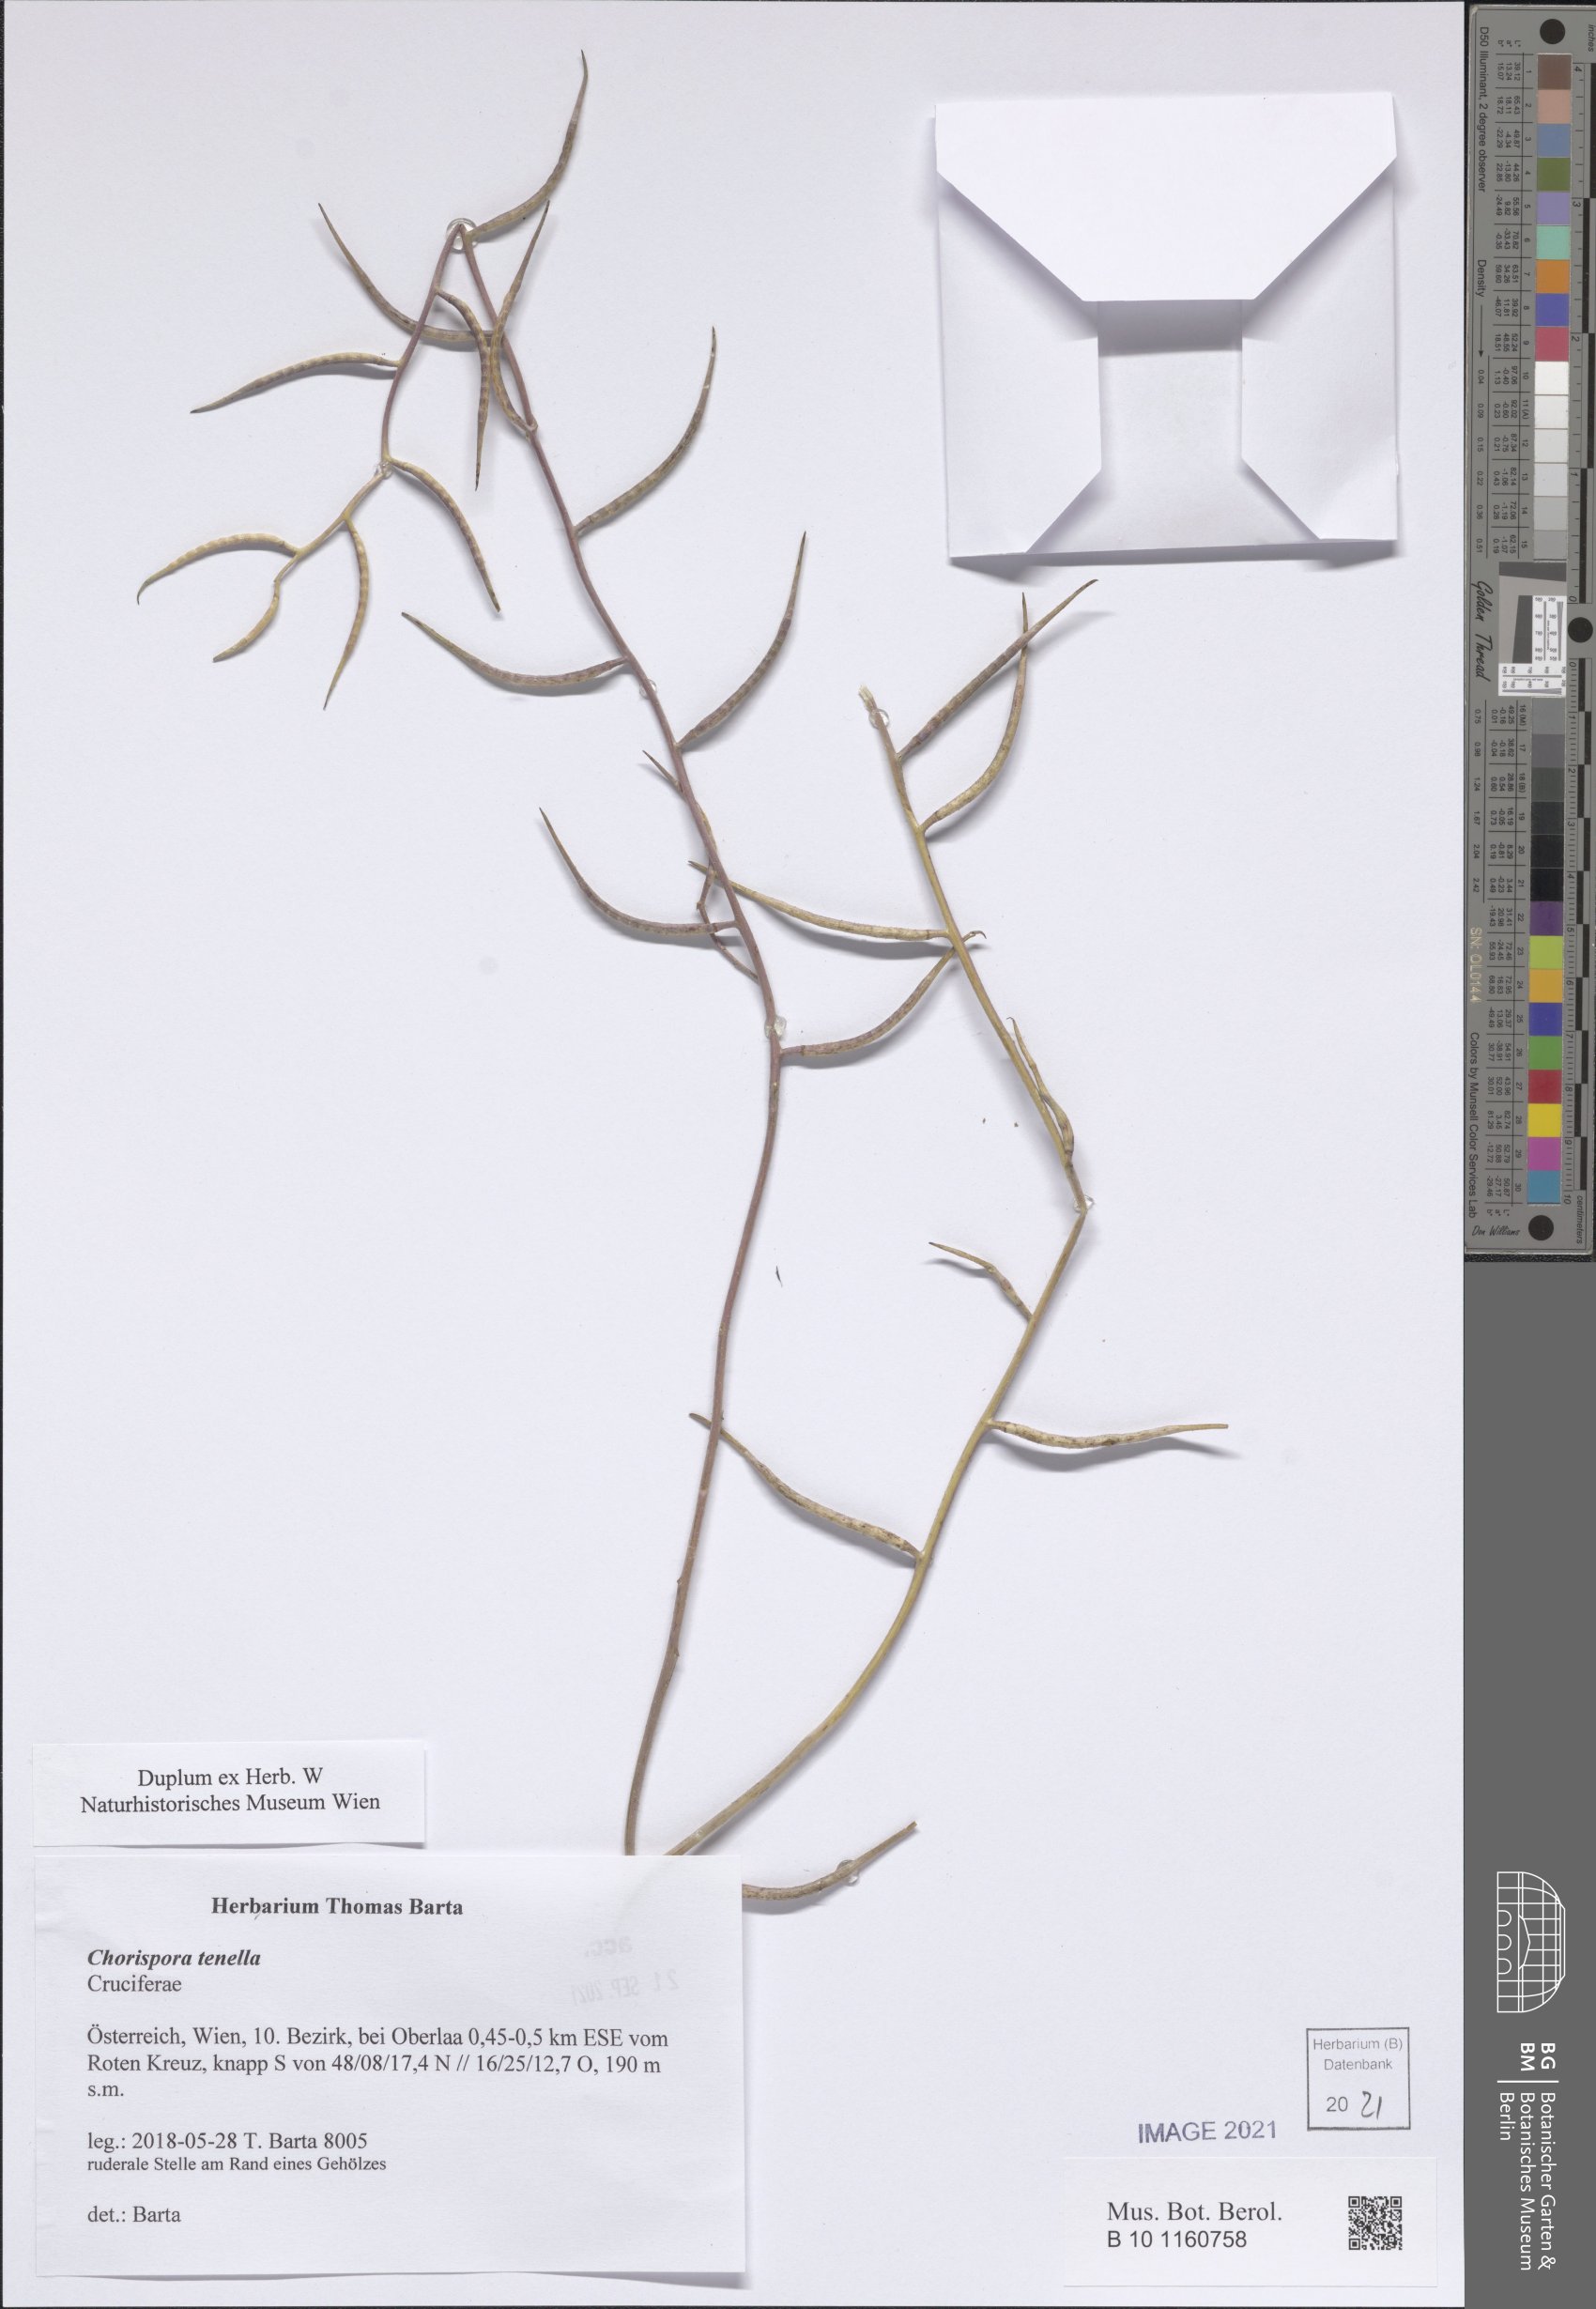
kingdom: Plantae
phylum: Tracheophyta
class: Magnoliopsida
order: Brassicales
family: Brassicaceae
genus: Chorispora
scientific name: Chorispora tenella
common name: Crossflower
